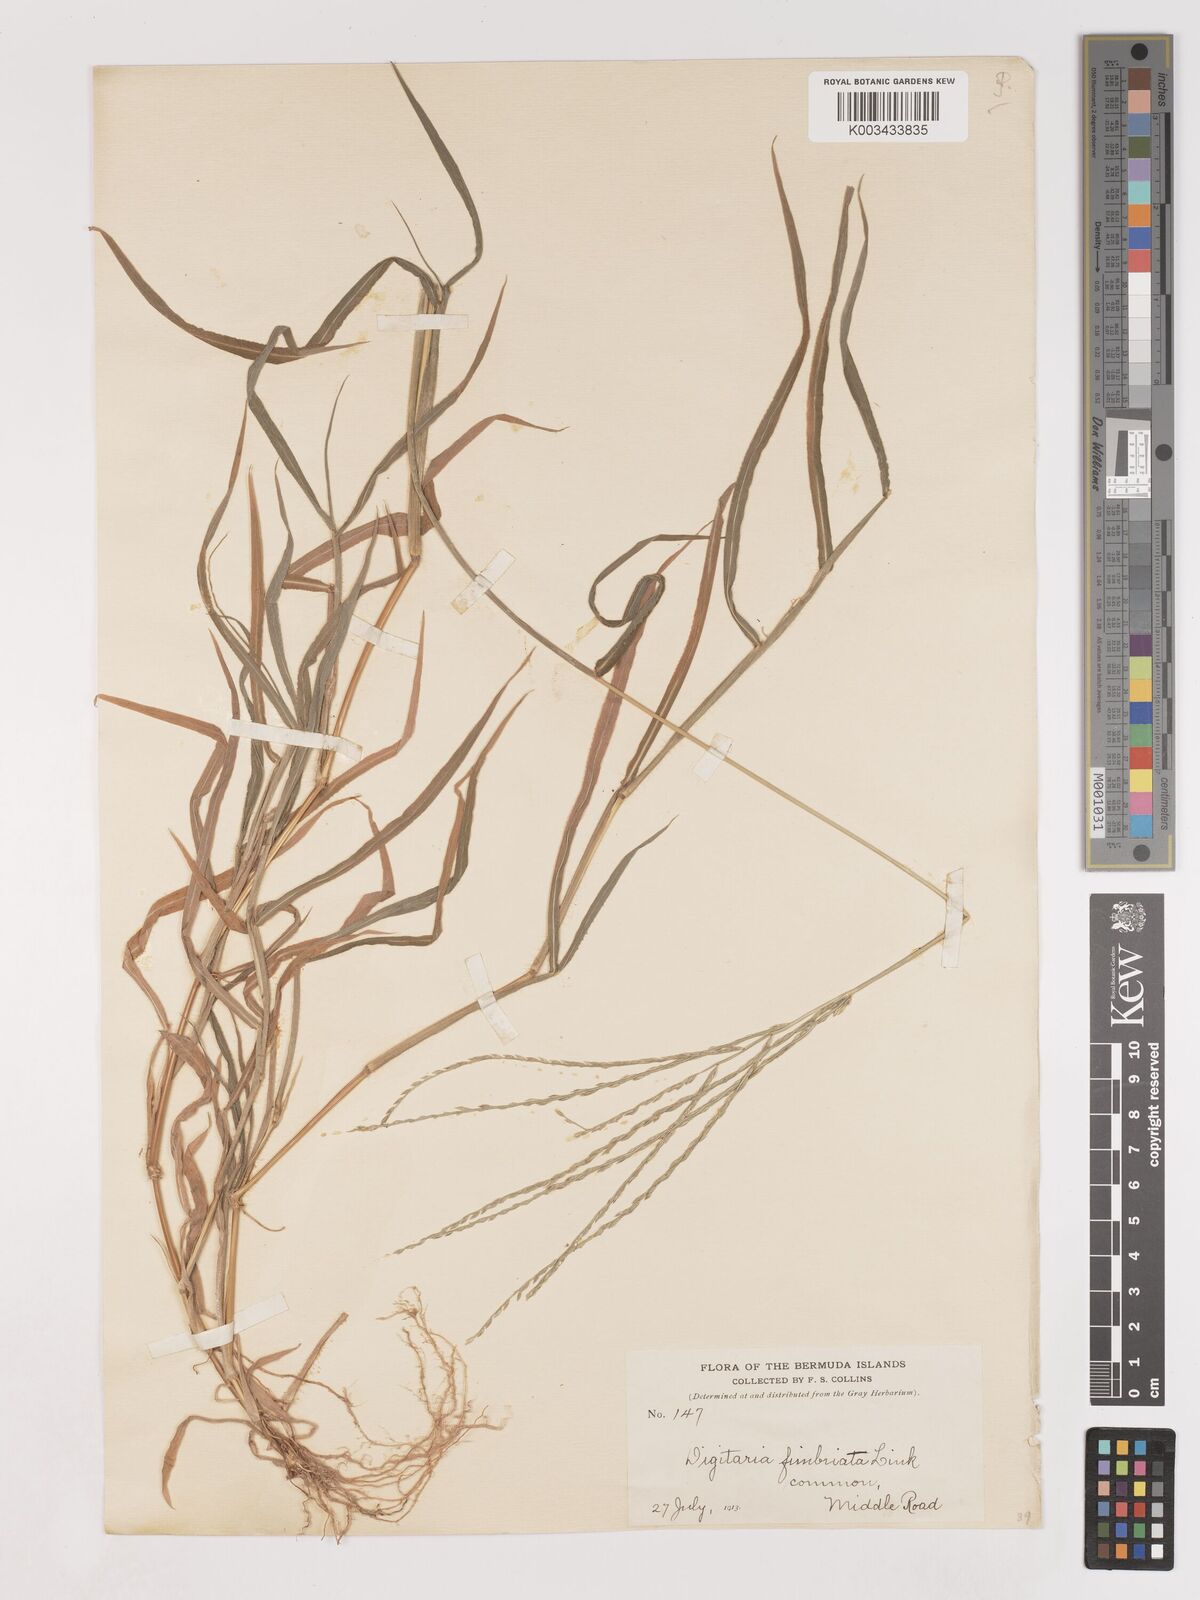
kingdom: Plantae
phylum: Tracheophyta
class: Liliopsida
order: Poales
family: Poaceae
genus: Digitaria
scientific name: Digitaria ciliaris
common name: Tropical finger-grass
